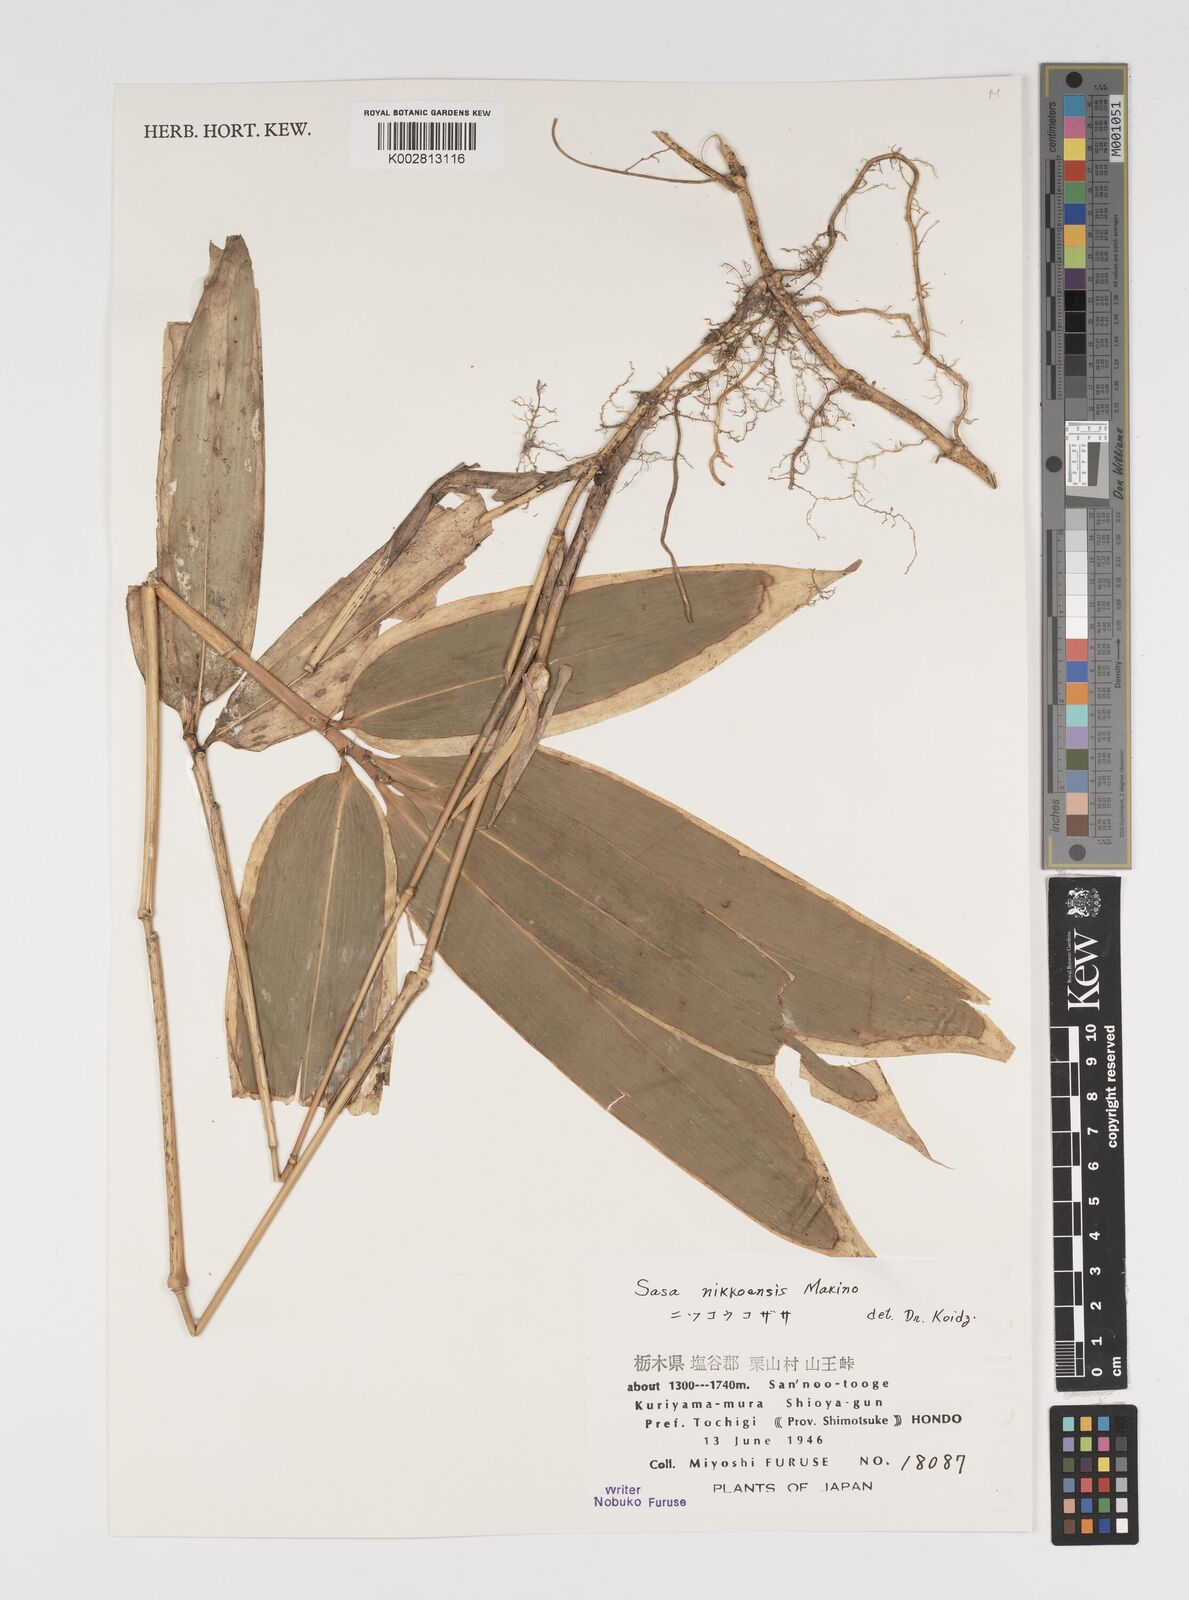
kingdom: Plantae
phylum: Tracheophyta
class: Liliopsida
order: Poales
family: Poaceae
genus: Sasa
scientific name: Sasa chartacea
